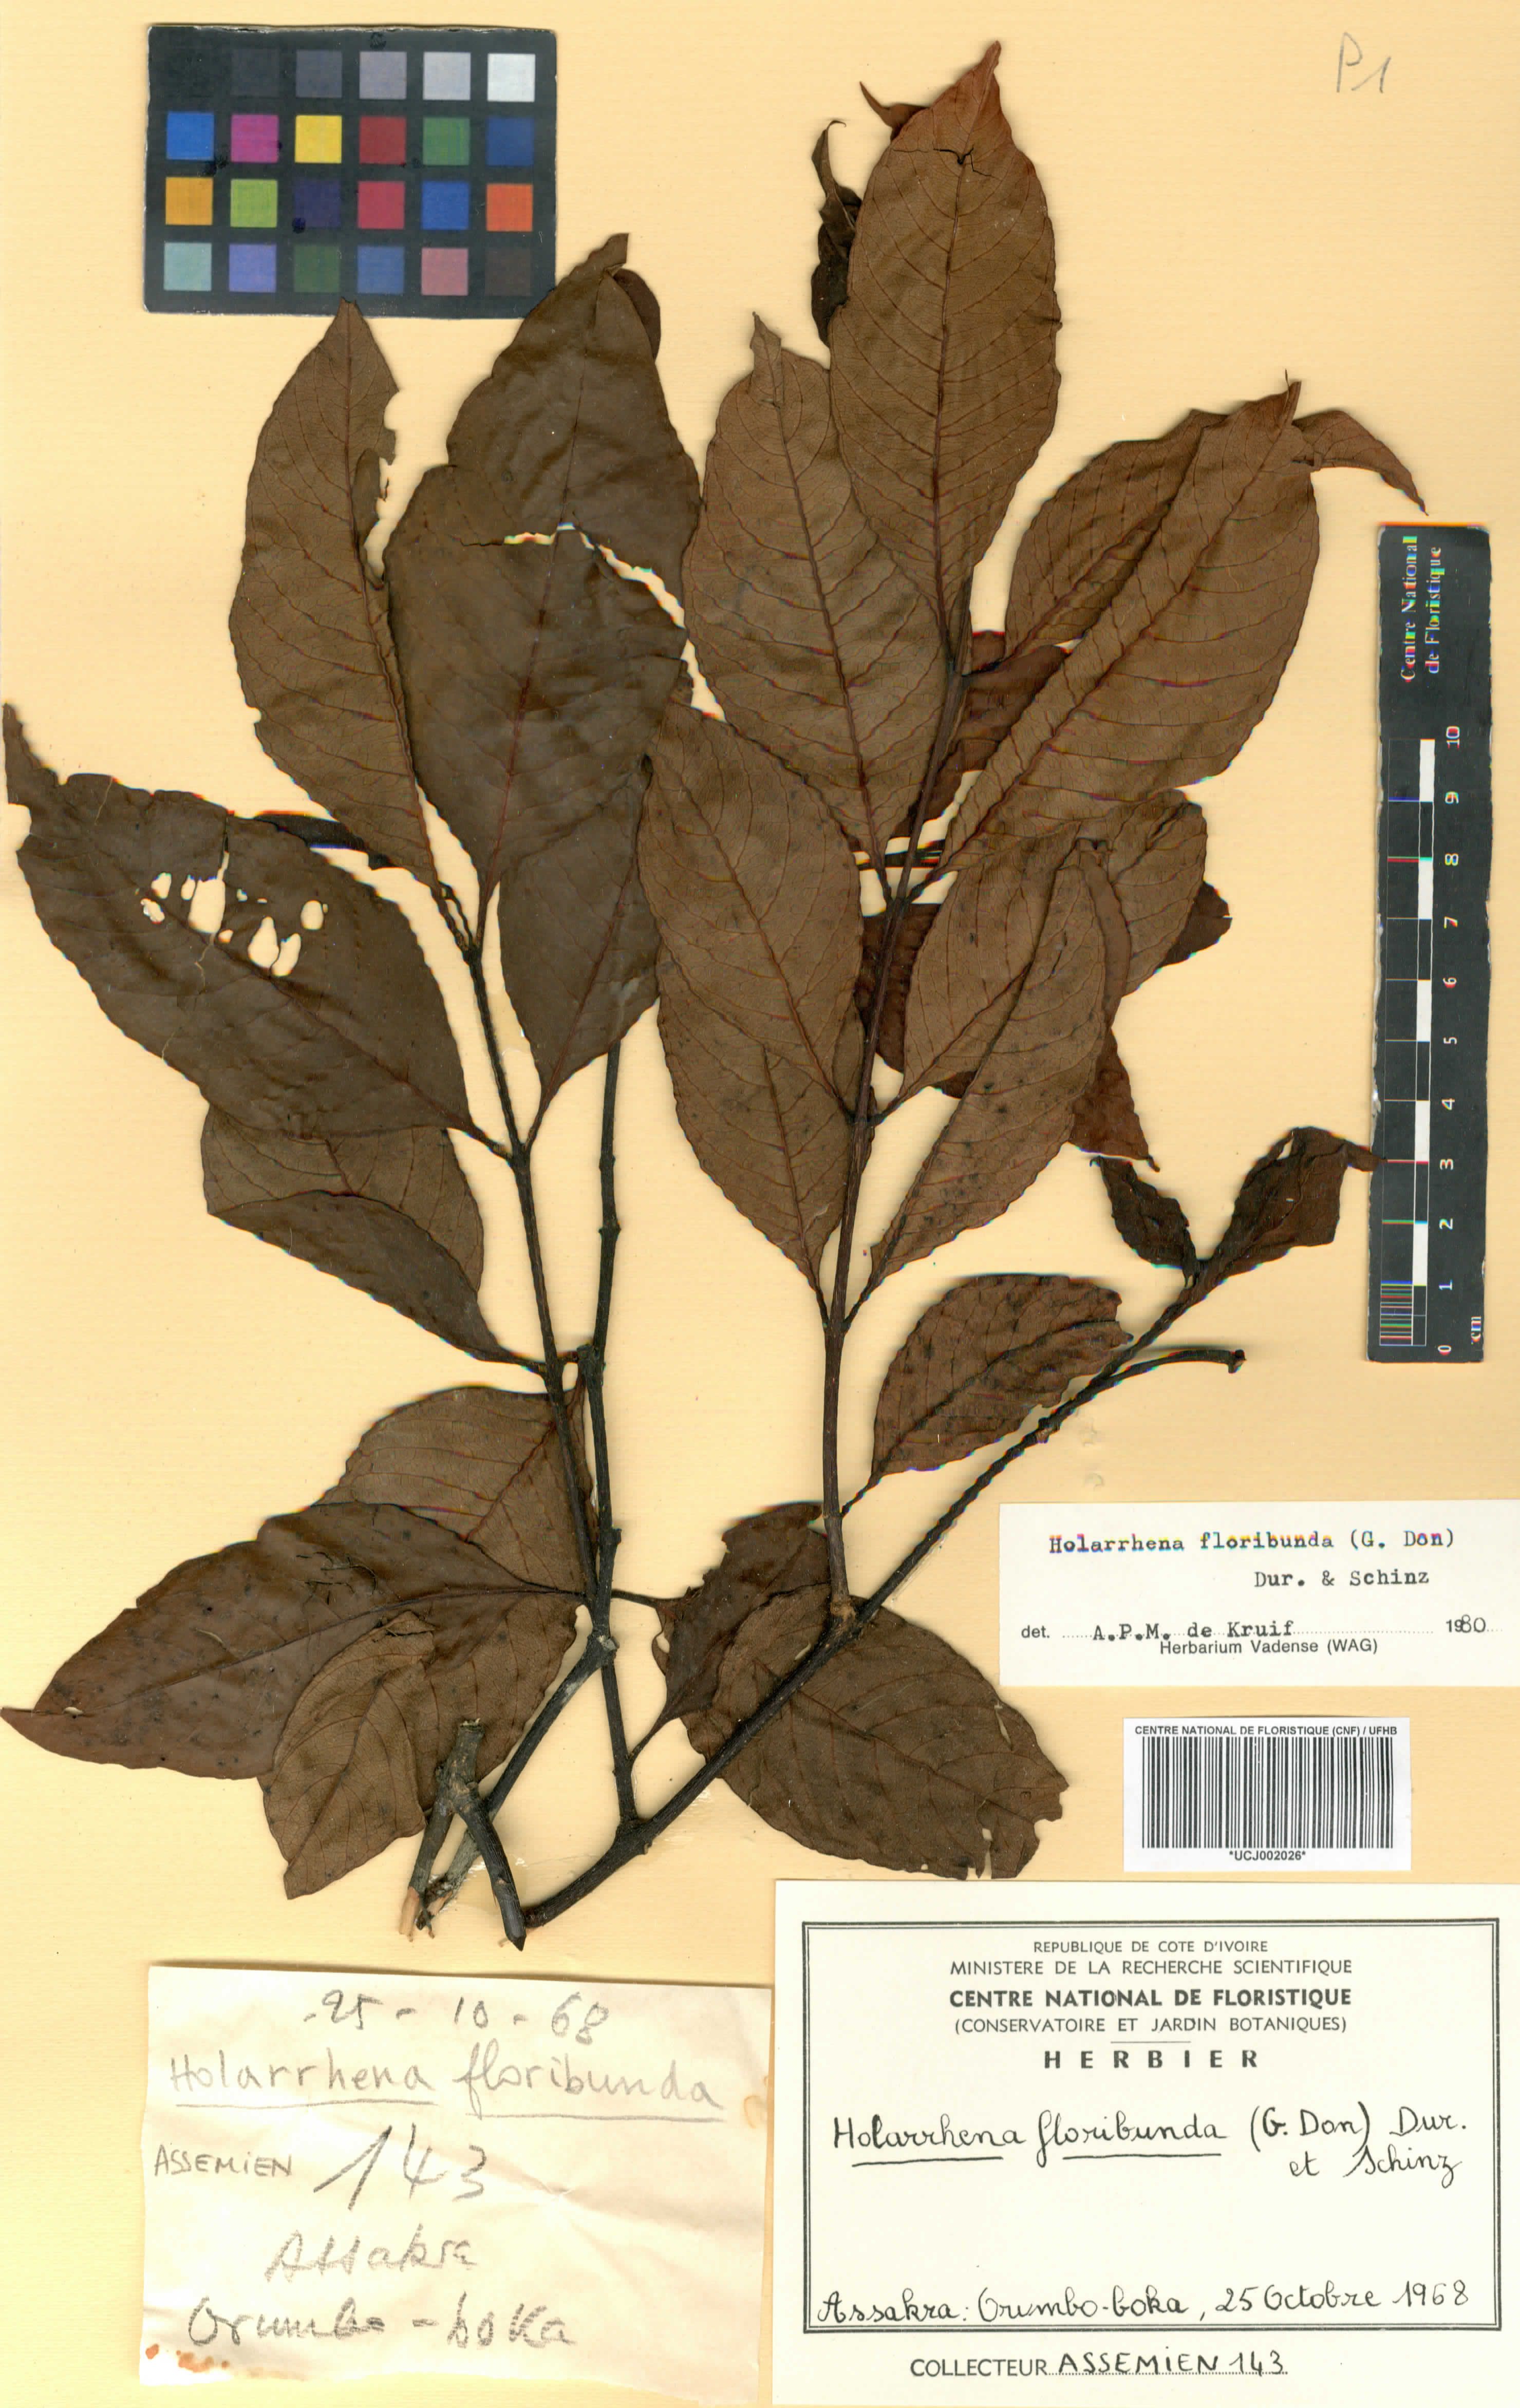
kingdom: Plantae
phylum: Tracheophyta
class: Magnoliopsida
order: Gentianales
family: Apocynaceae
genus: Holarrhena
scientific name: Holarrhena floribunda
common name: Kurchibark
